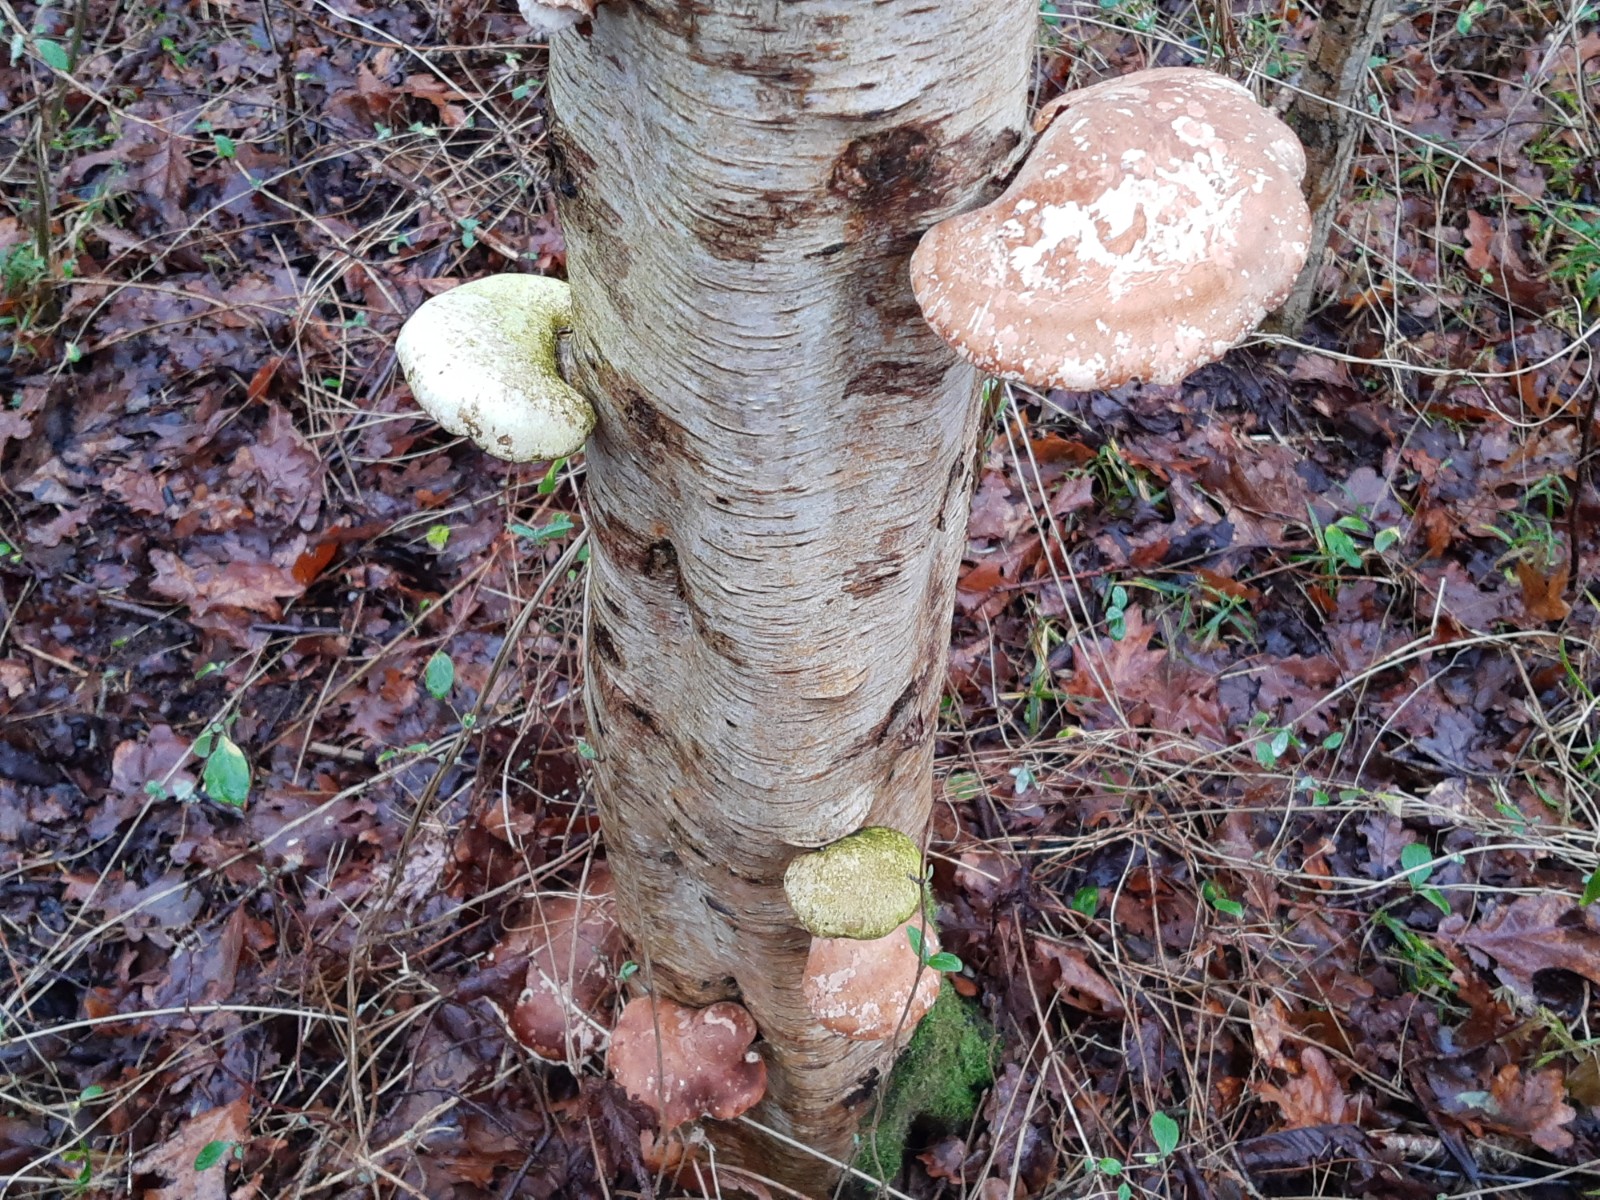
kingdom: Fungi
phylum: Basidiomycota
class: Agaricomycetes
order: Polyporales
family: Fomitopsidaceae
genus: Fomitopsis
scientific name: Fomitopsis betulina
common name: birkeporesvamp
